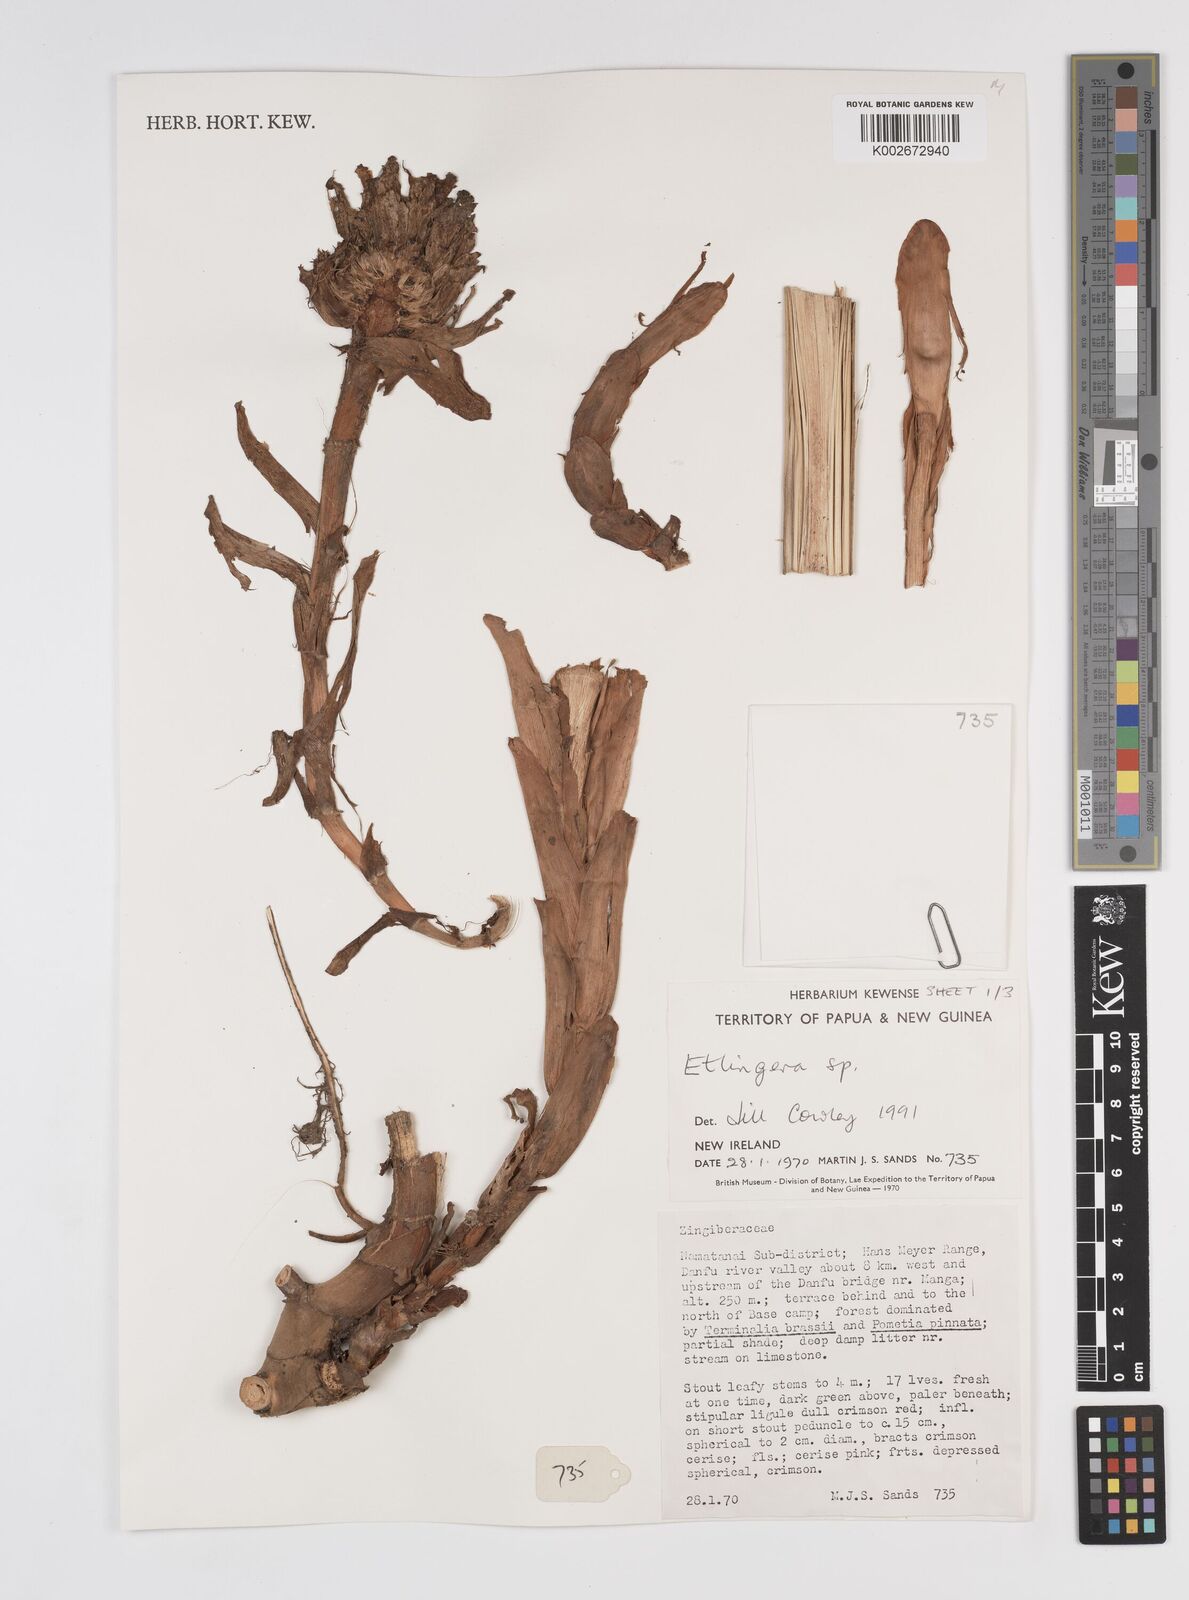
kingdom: Plantae
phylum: Tracheophyta
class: Liliopsida
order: Zingiberales
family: Zingiberaceae
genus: Etlingera
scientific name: Etlingera
